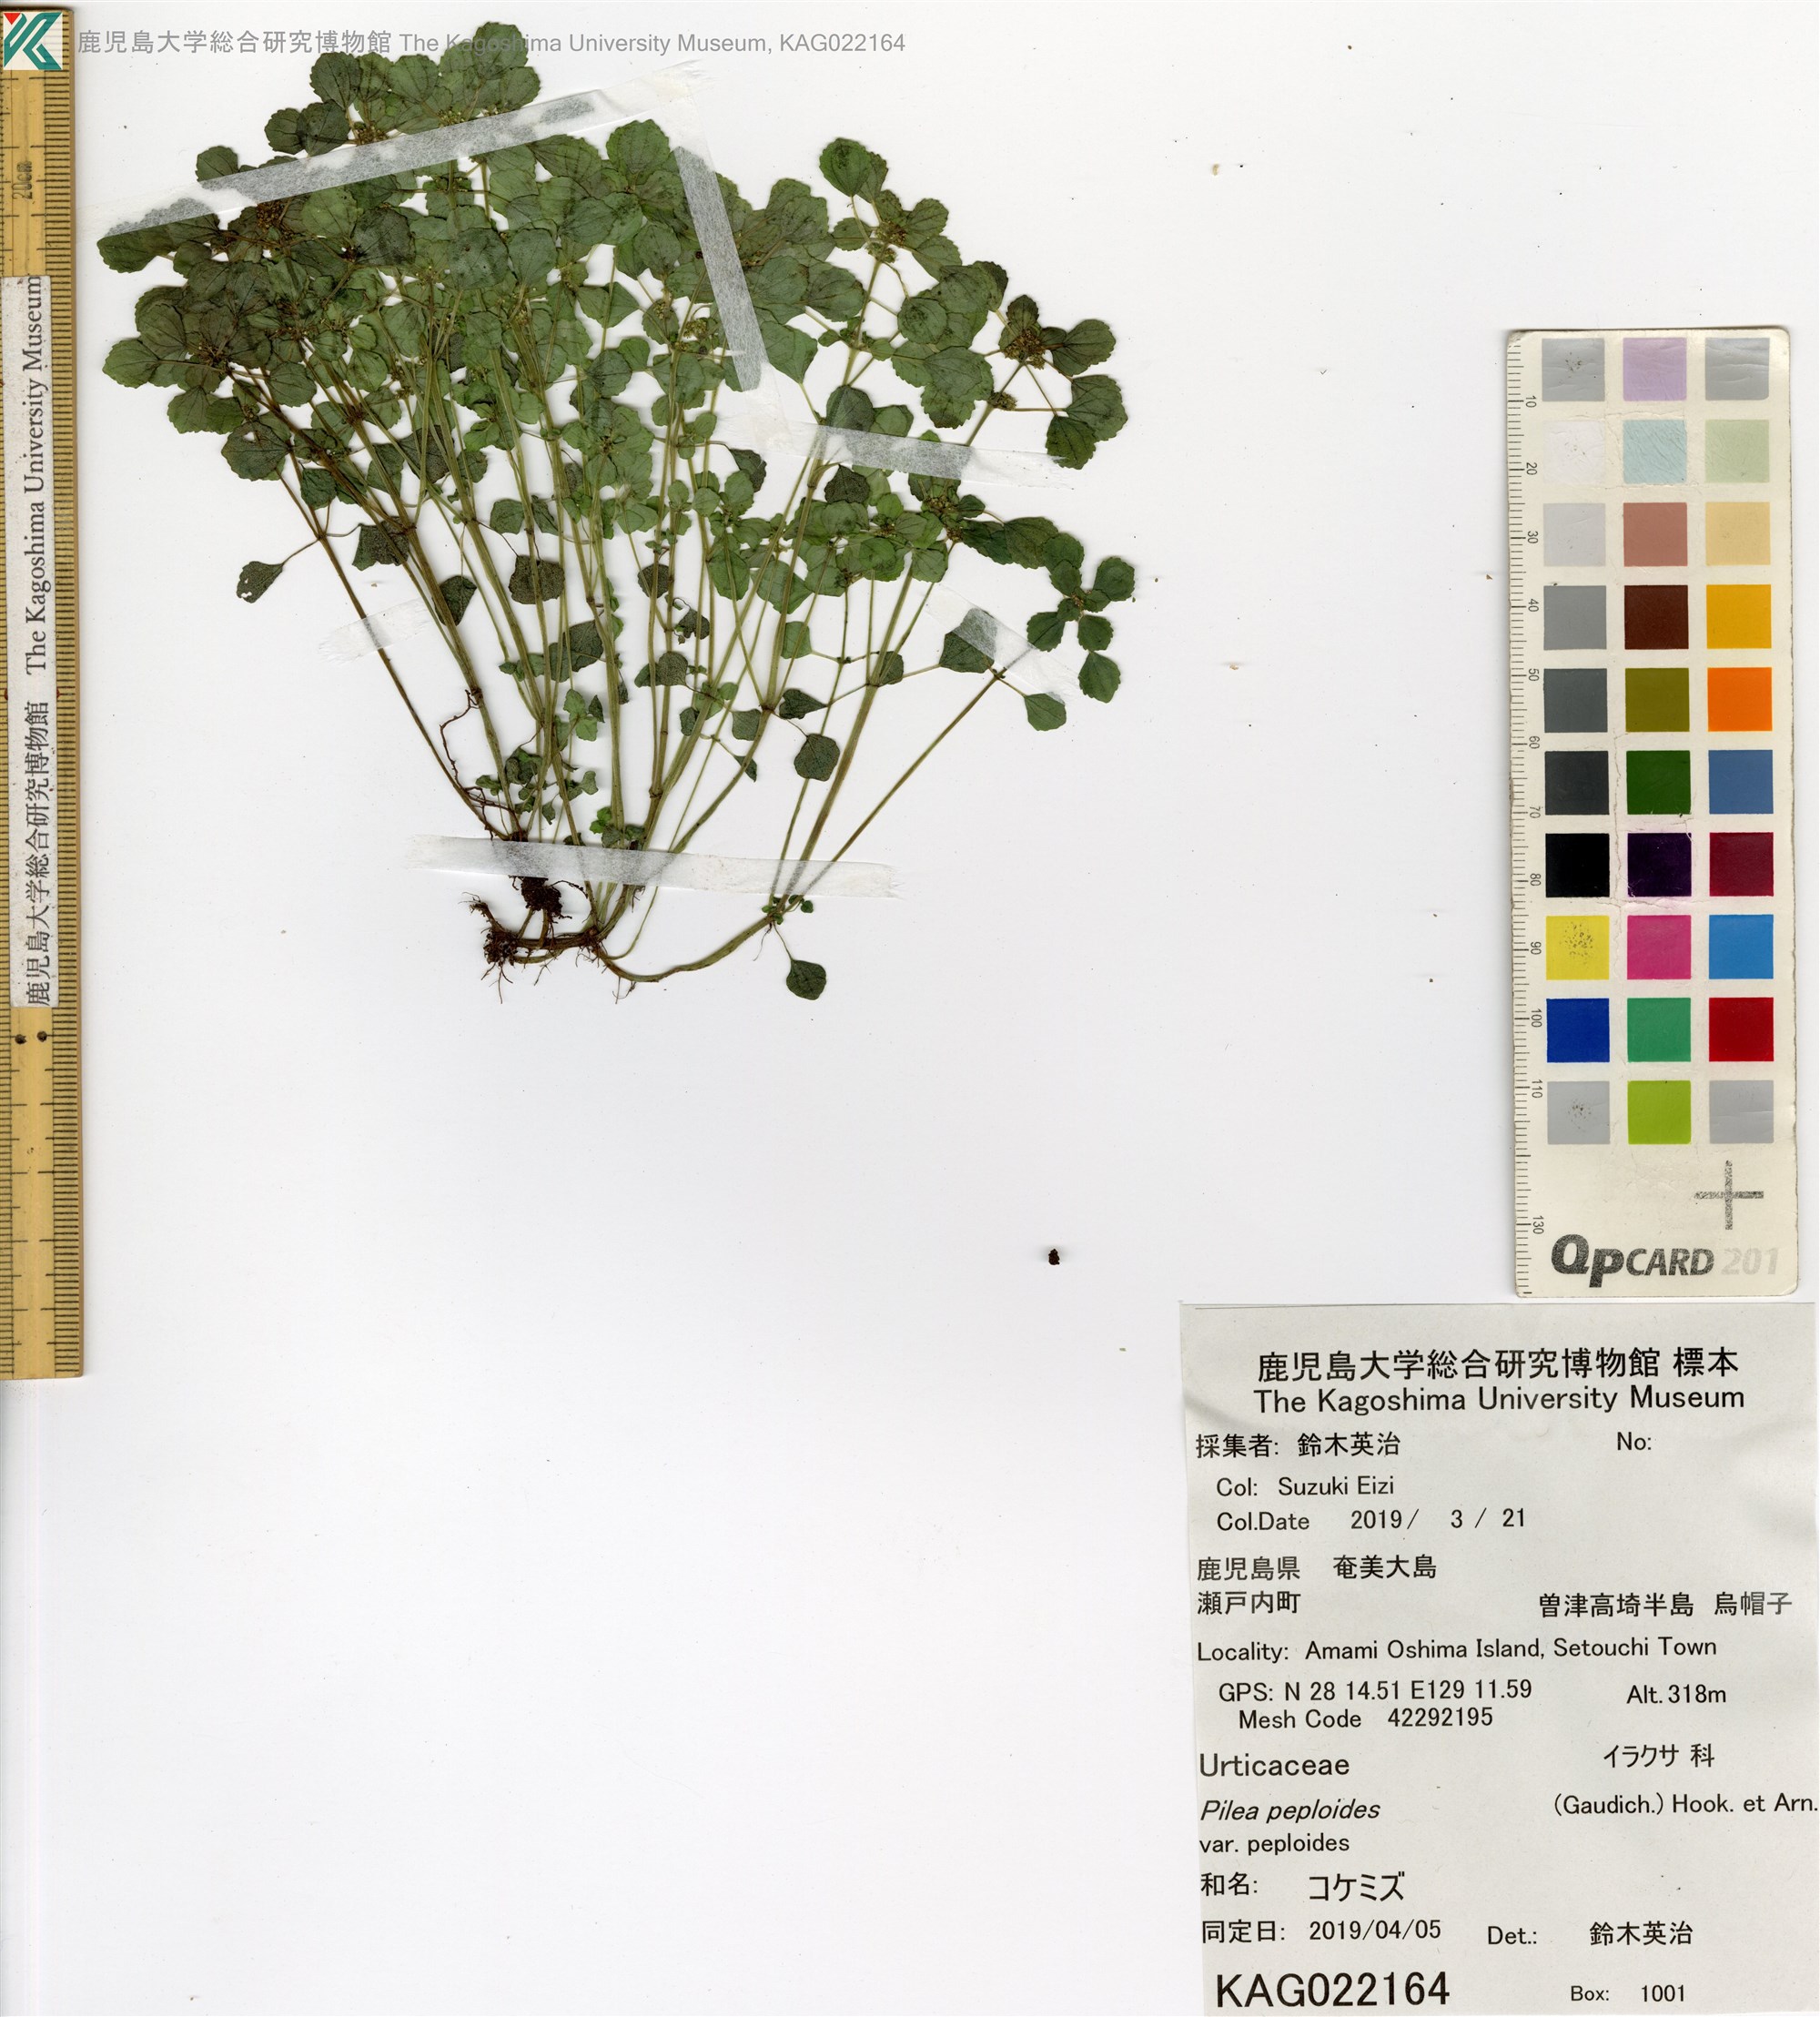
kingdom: Plantae
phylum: Tracheophyta
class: Magnoliopsida
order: Rosales
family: Urticaceae
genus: Pilea
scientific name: Pilea peploides
